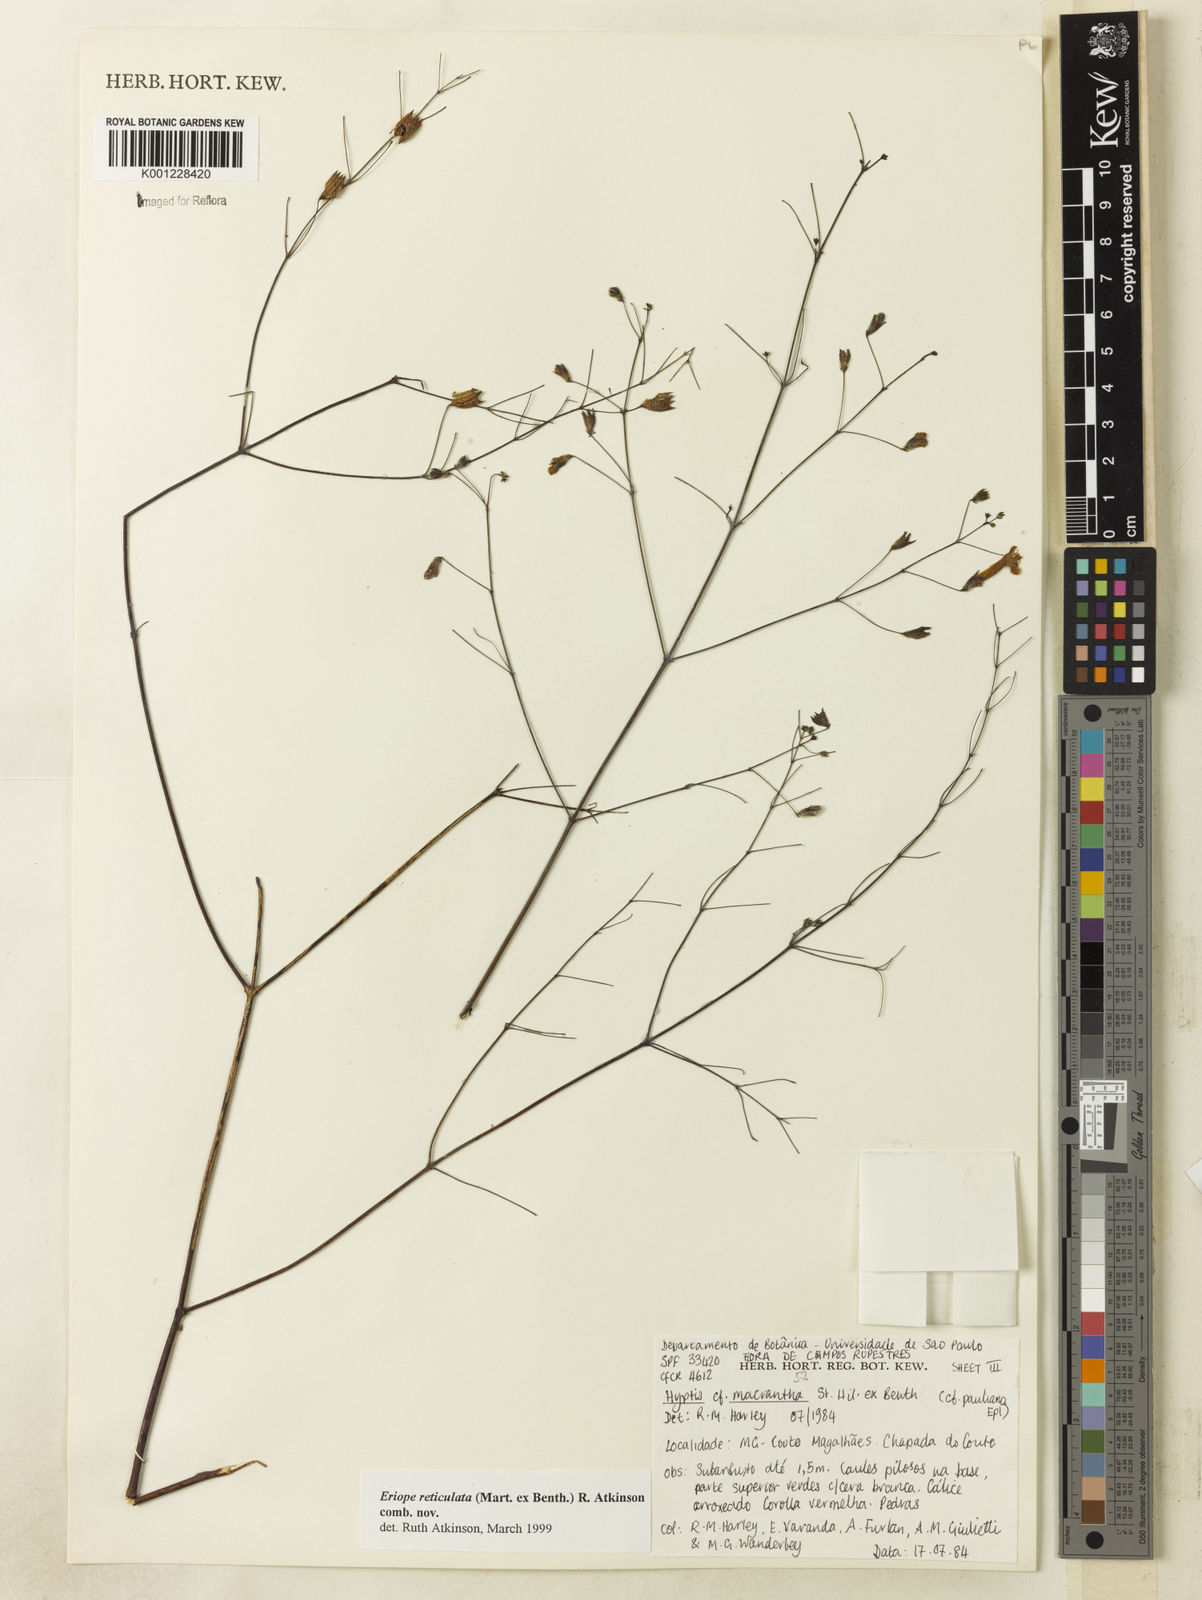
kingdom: Plantae
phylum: Tracheophyta
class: Magnoliopsida
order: Lamiales
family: Lamiaceae
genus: Hypenia
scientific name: Hypenia reticulata
